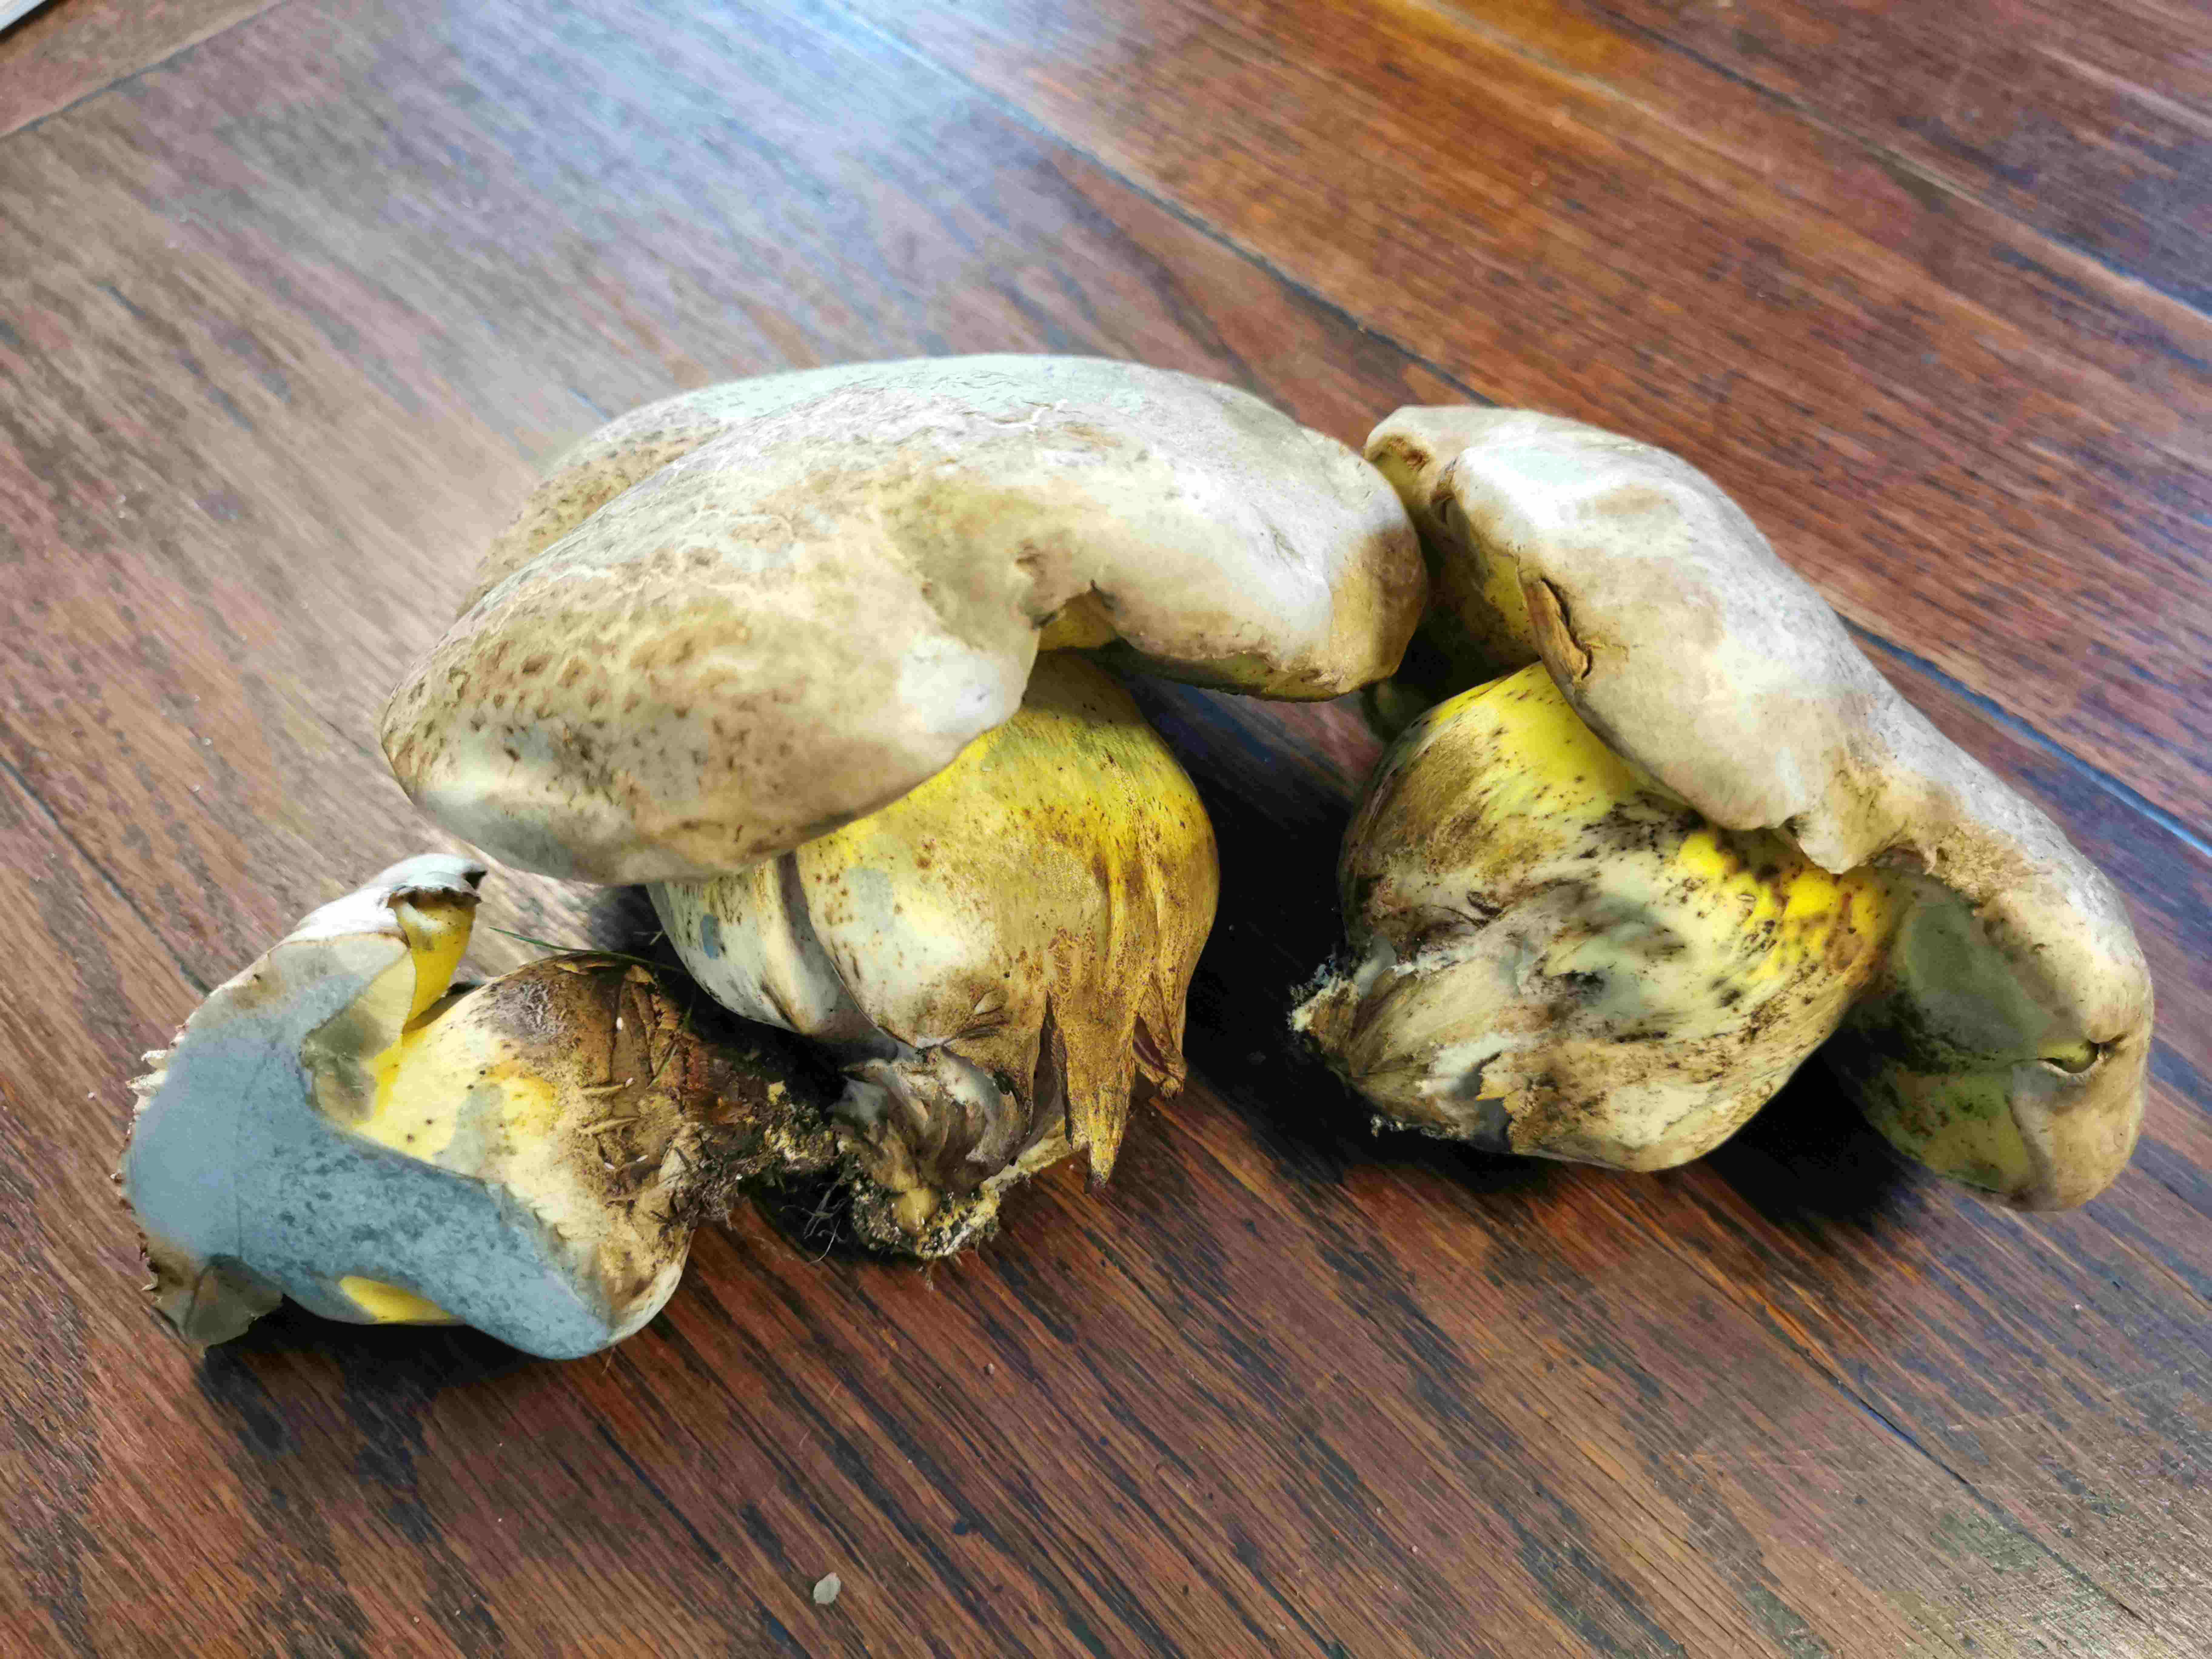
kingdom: Fungi
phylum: Basidiomycota
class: Agaricomycetes
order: Boletales
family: Boletaceae
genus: Caloboletus
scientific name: Caloboletus radicans
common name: rod-rørhat
